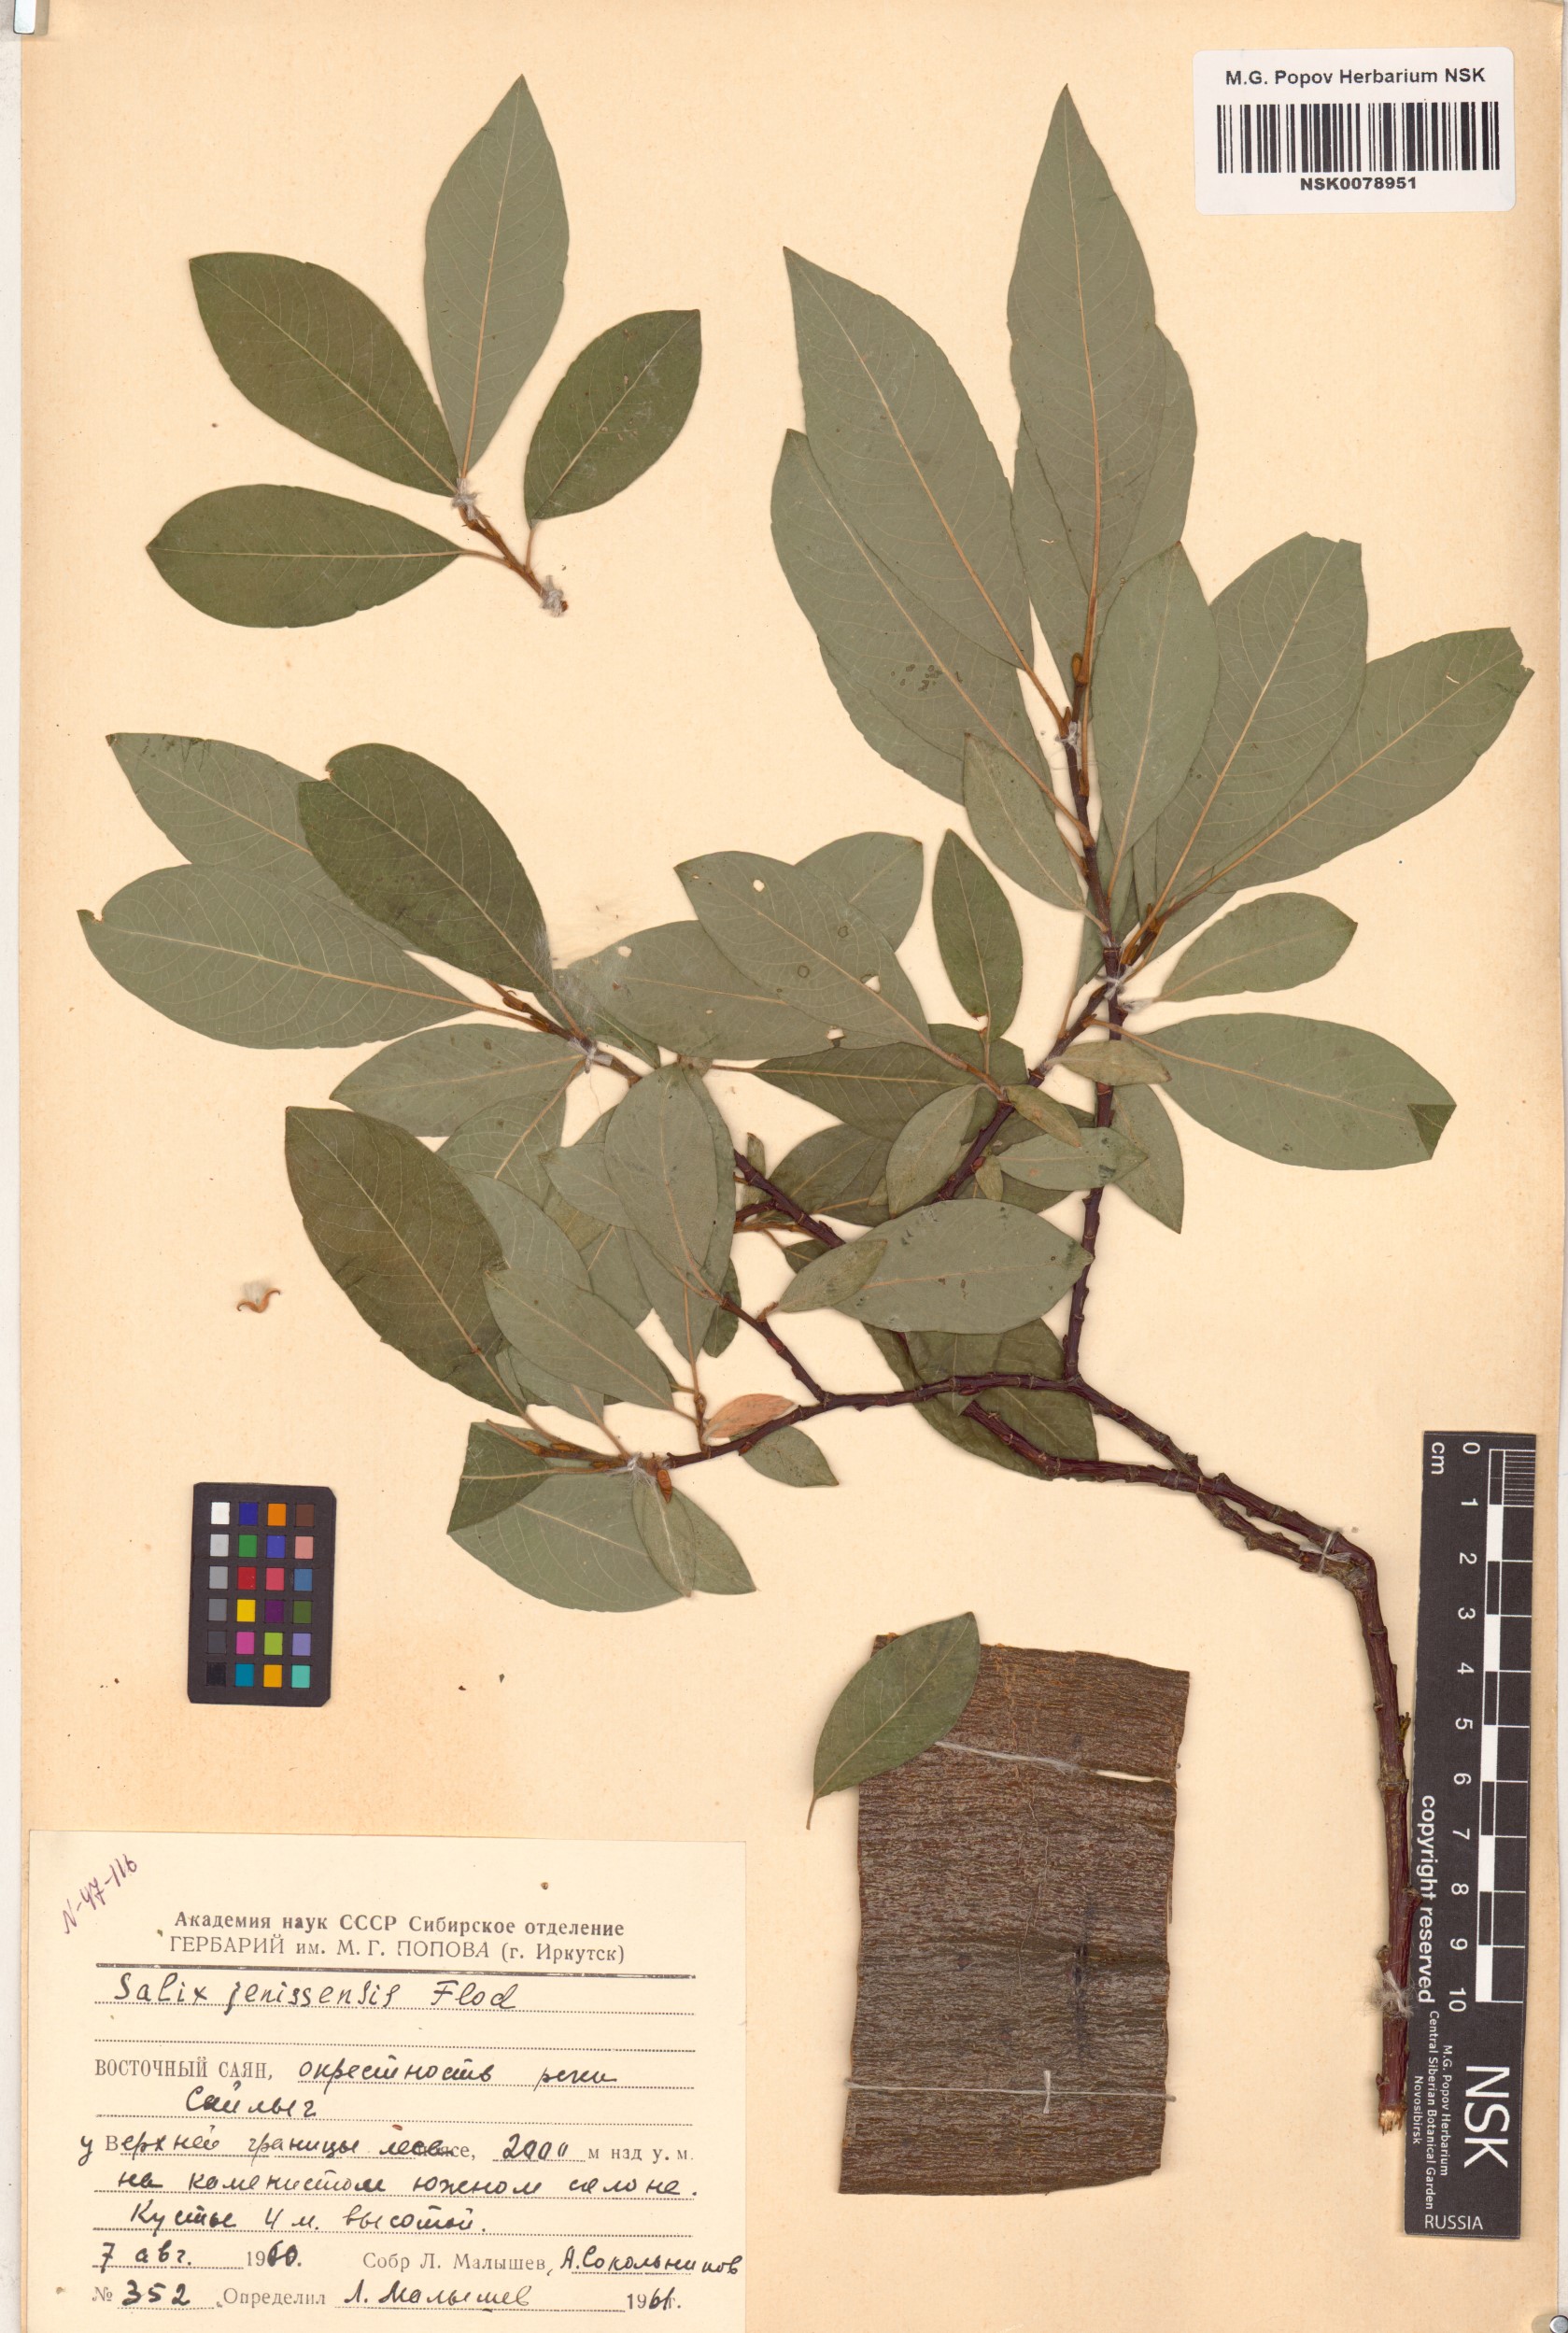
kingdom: Plantae
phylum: Tracheophyta
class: Magnoliopsida
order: Malpighiales
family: Salicaceae
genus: Salix
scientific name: Salix jenisseensis
